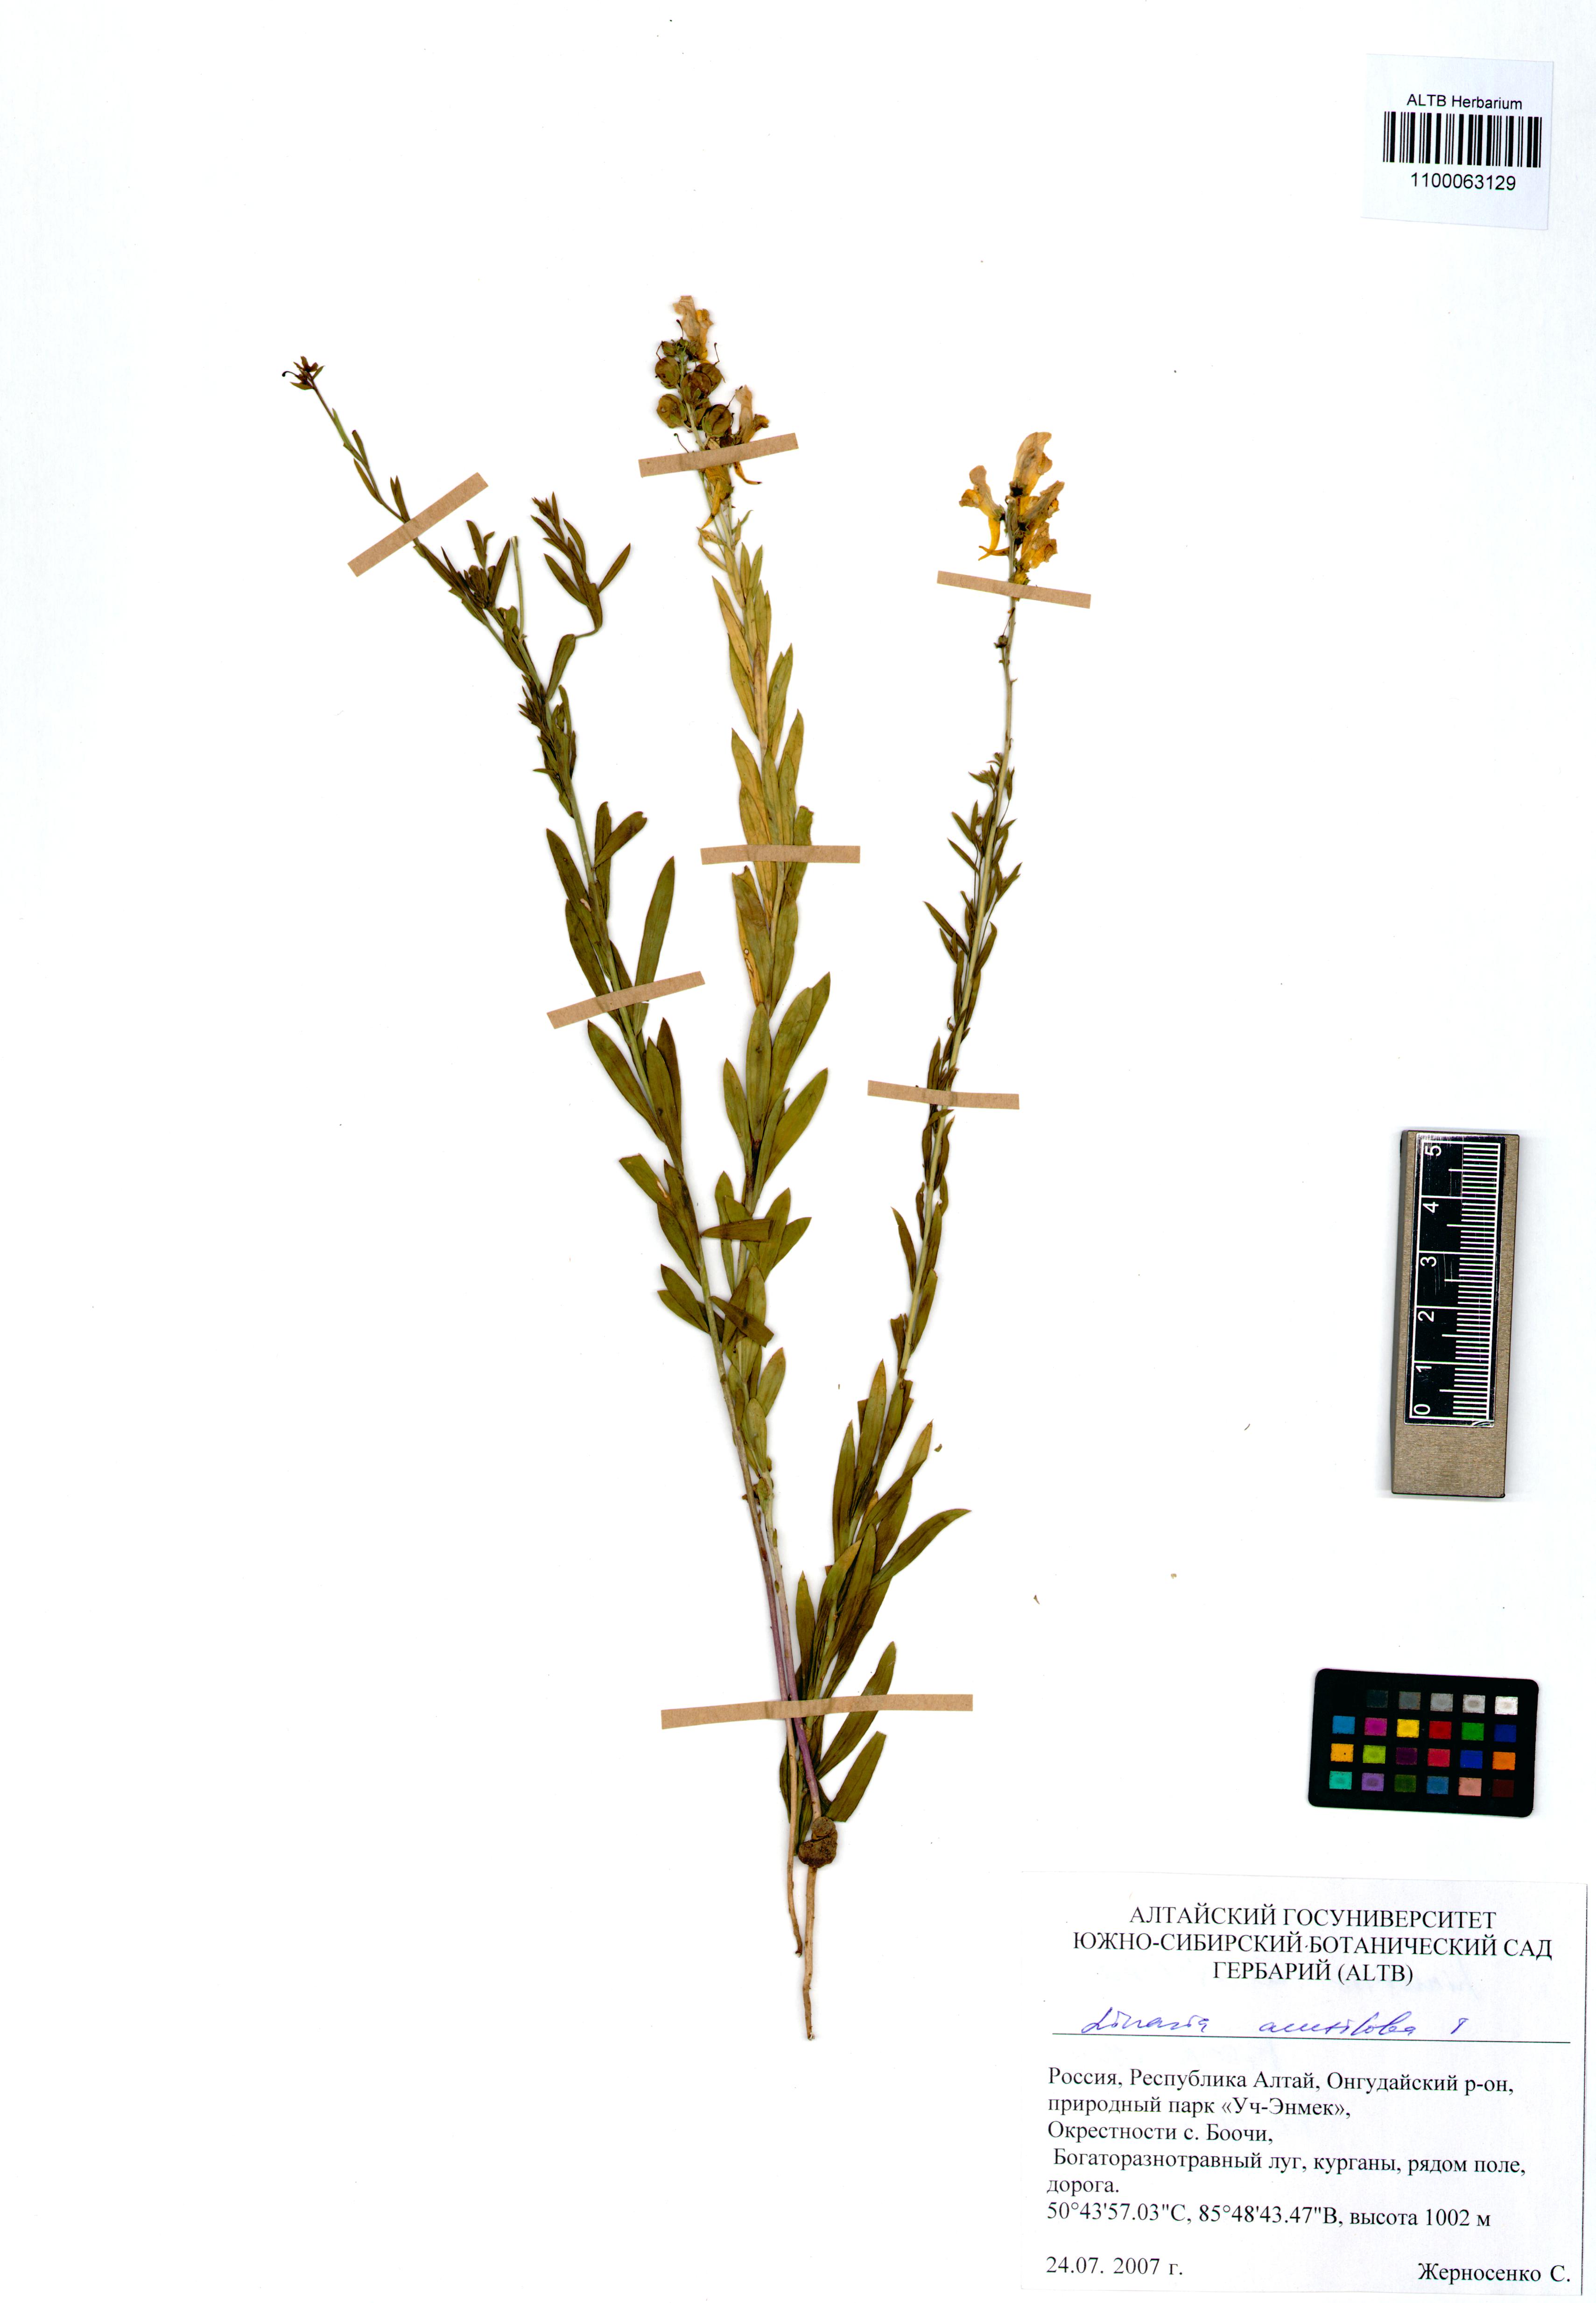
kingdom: Plantae
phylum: Tracheophyta
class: Magnoliopsida
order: Lamiales
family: Plantaginaceae
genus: Linaria
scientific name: Linaria acutiloba
